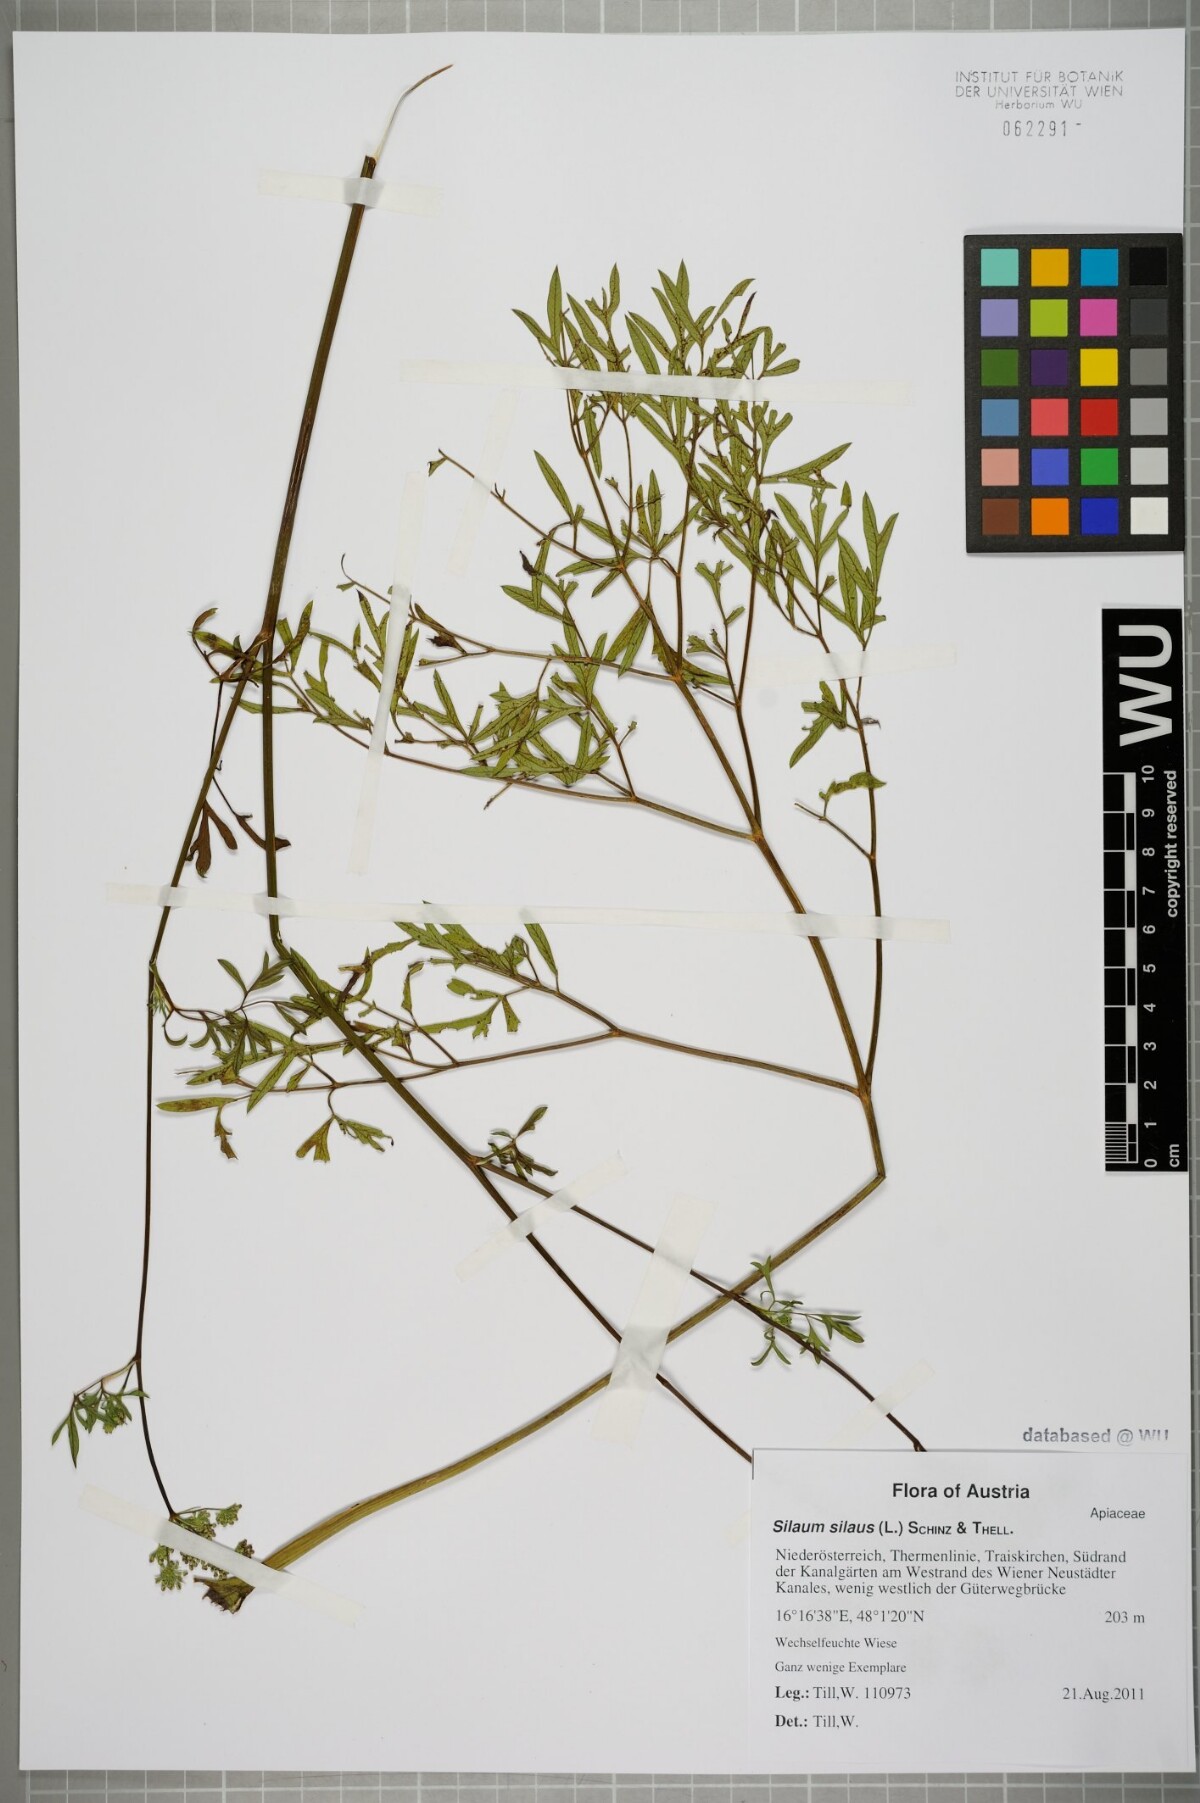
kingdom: Plantae
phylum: Tracheophyta
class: Magnoliopsida
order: Apiales
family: Apiaceae
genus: Silaum
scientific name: Silaum silaus
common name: Pepper-saxifrage
